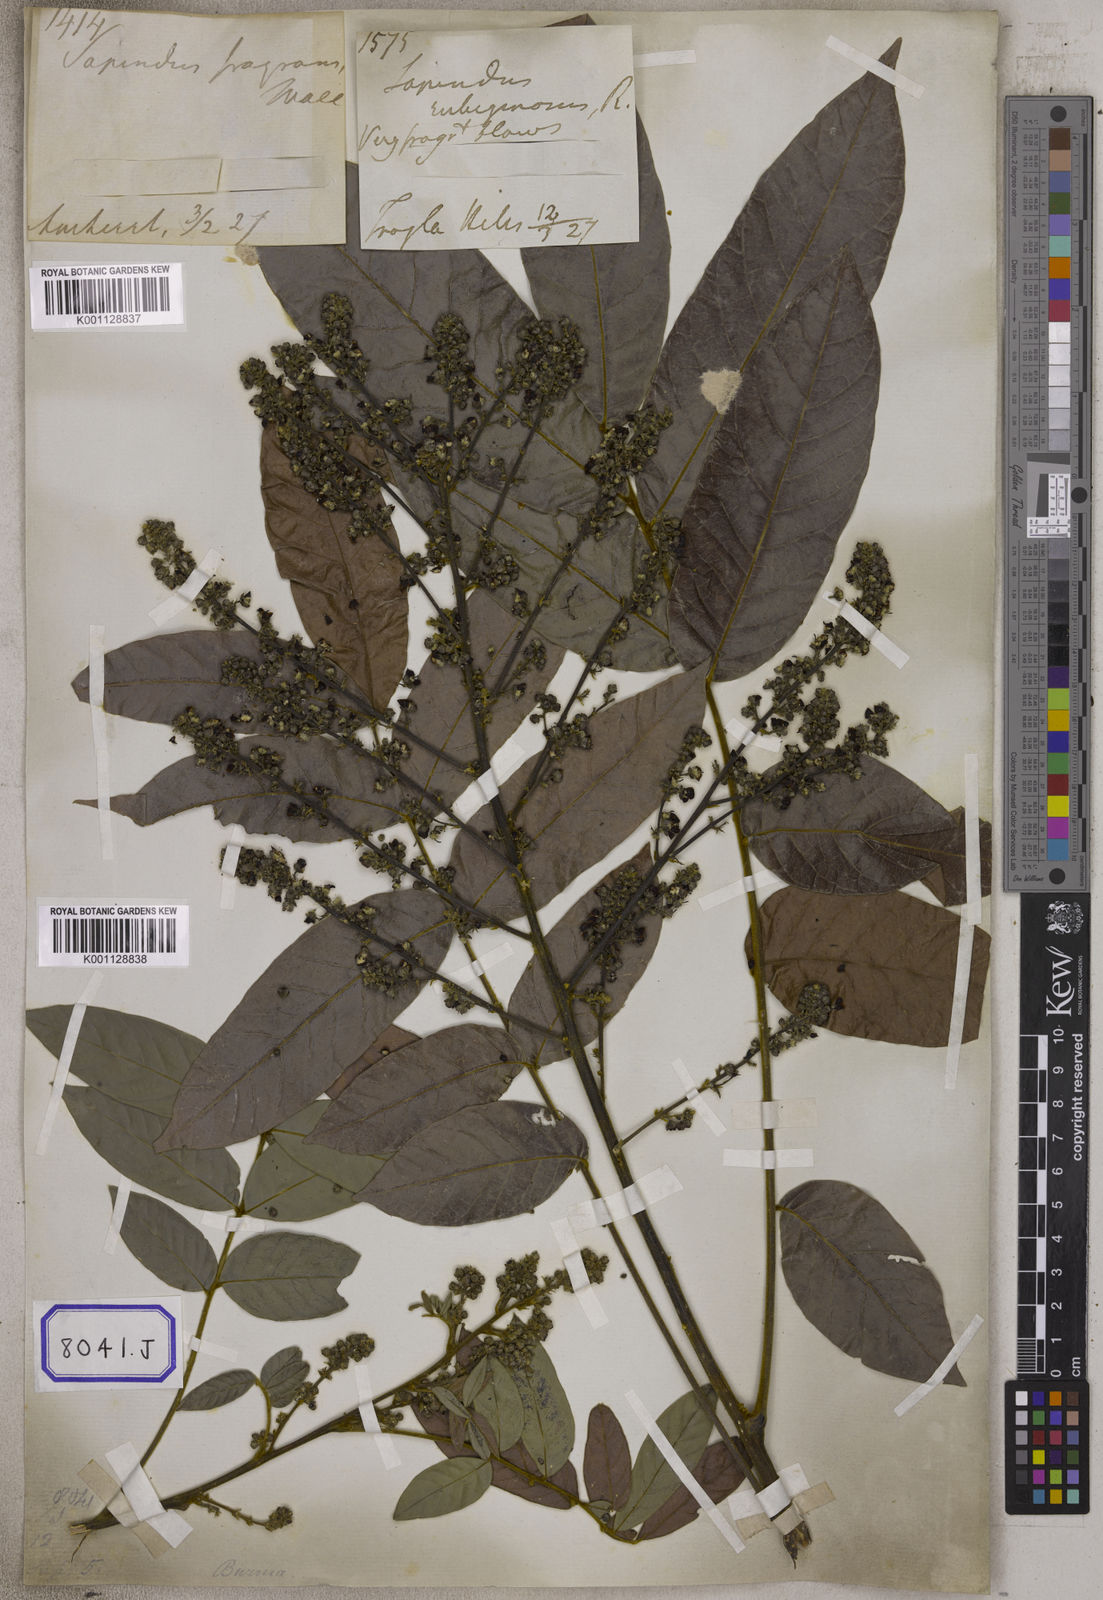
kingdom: Plantae
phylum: Tracheophyta
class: Magnoliopsida
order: Sapindales
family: Sapindaceae
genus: Lepisanthes
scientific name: Lepisanthes rubiginosa
